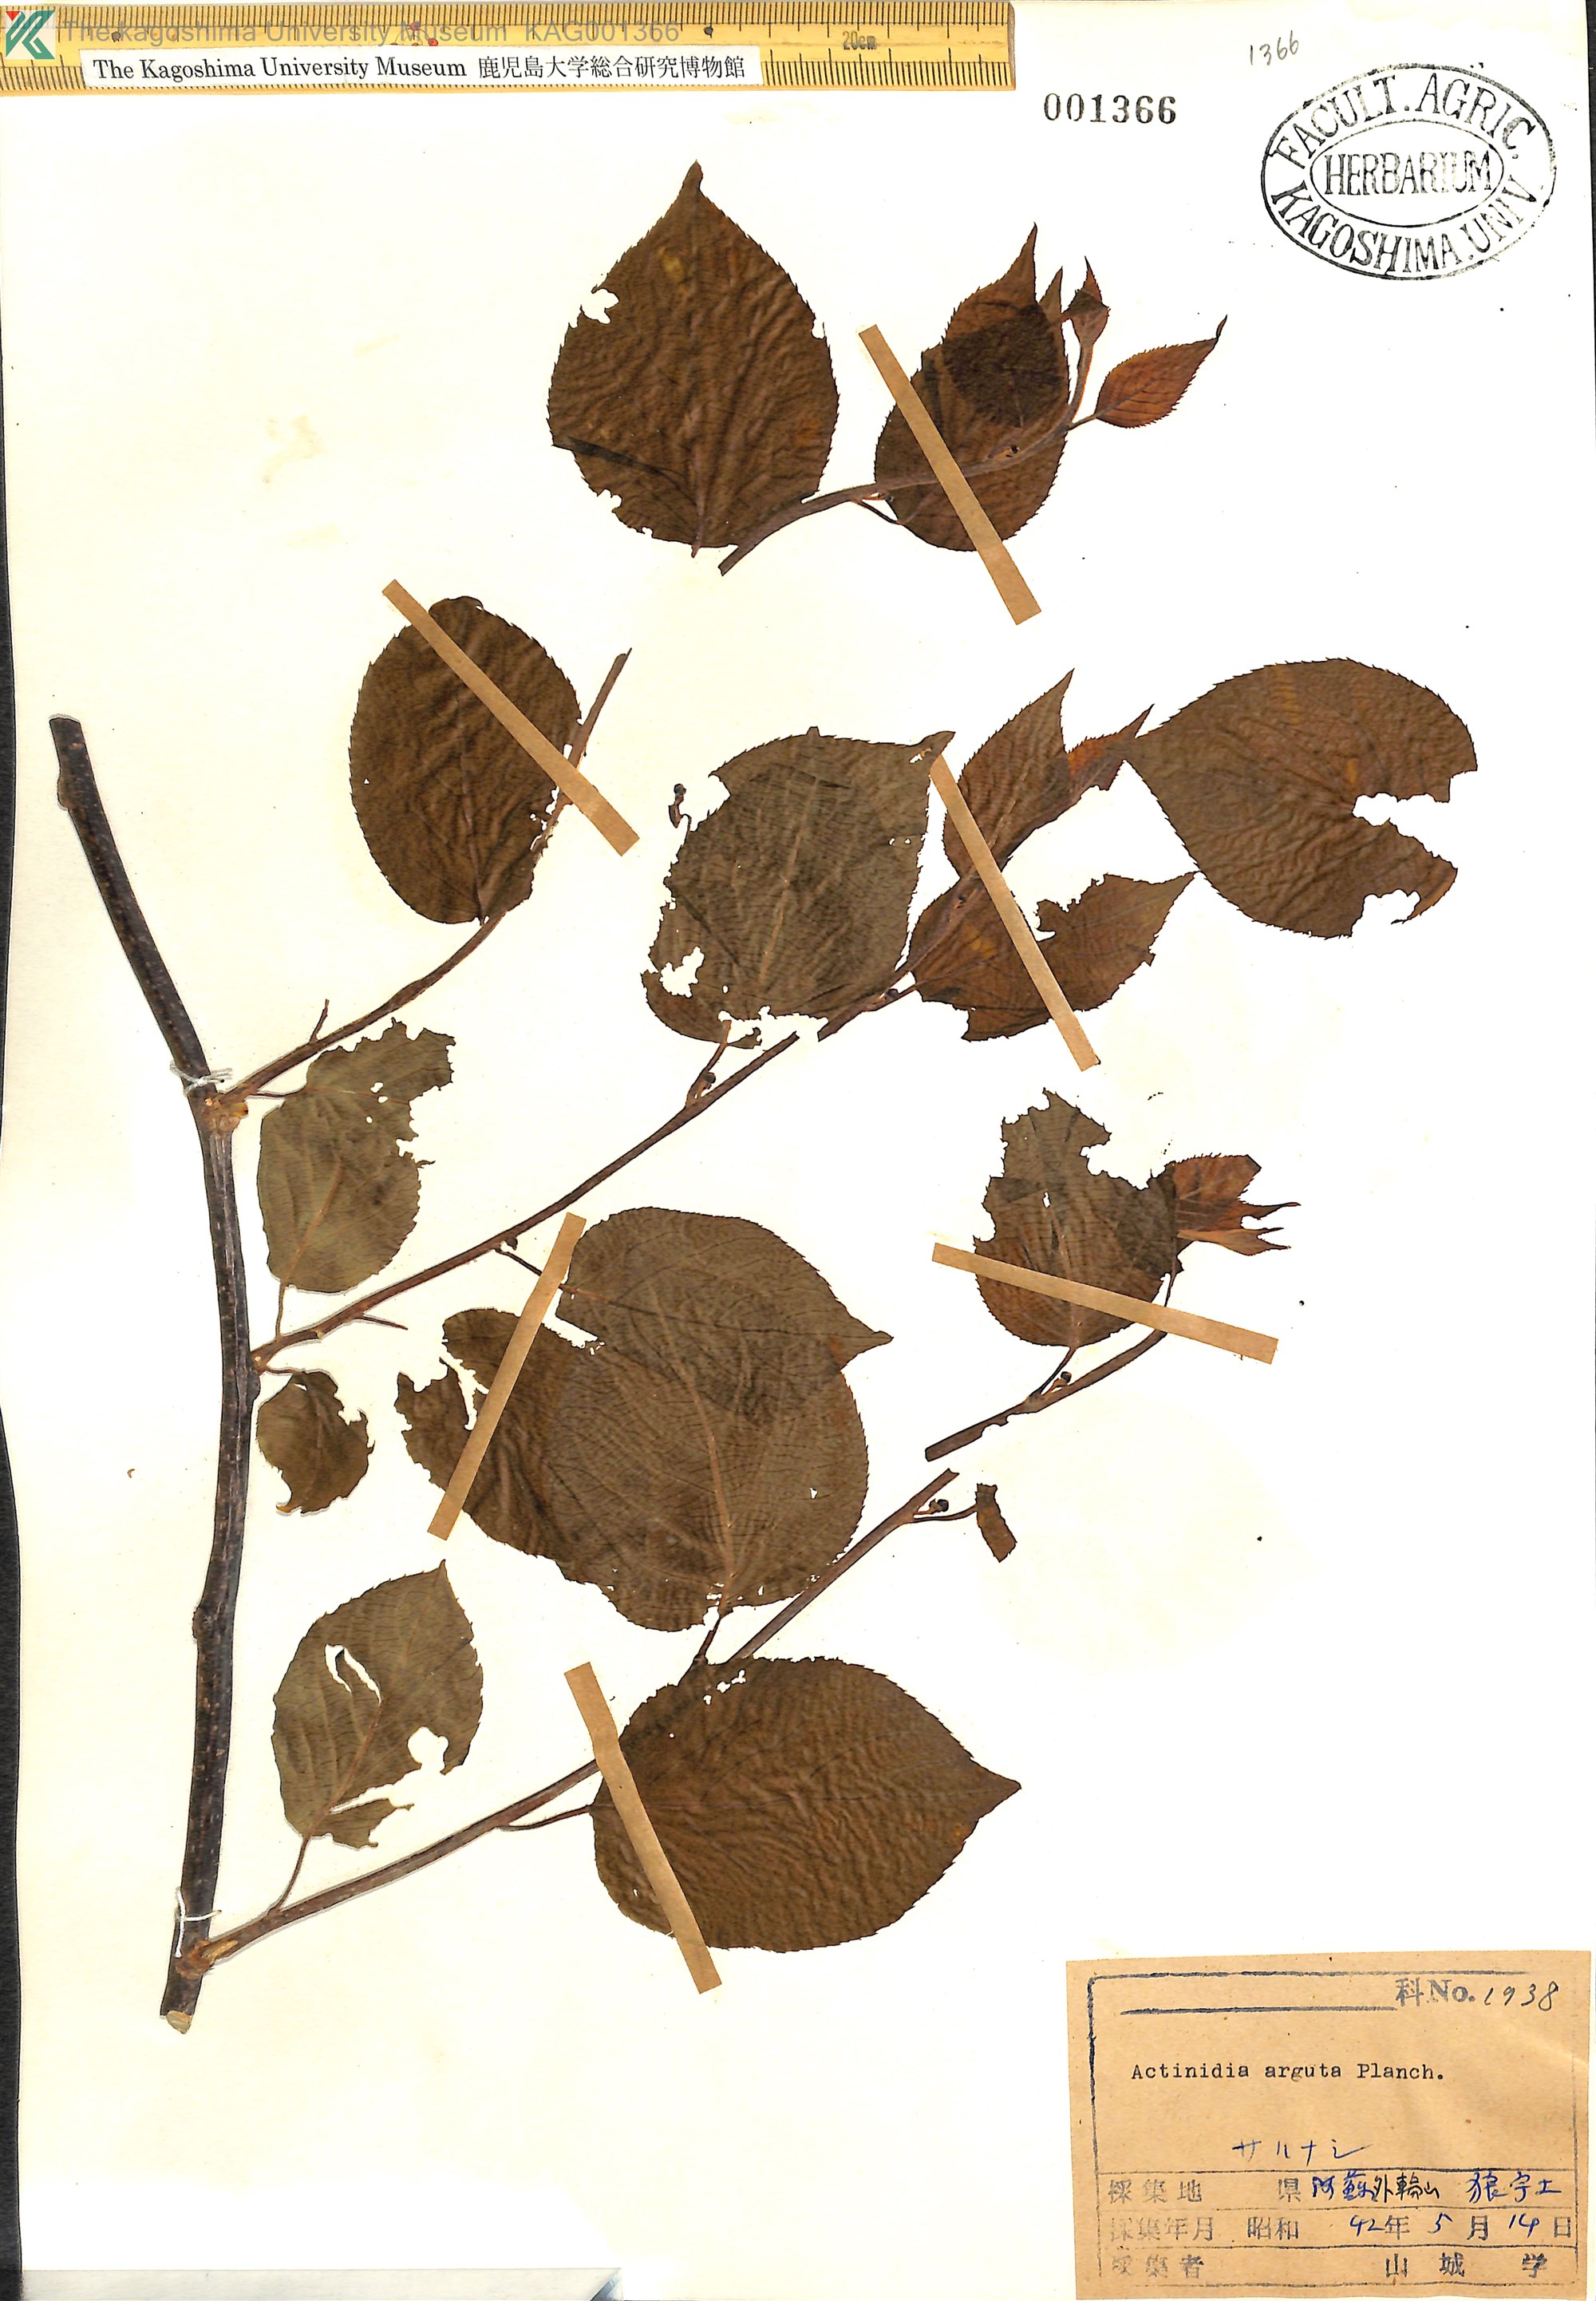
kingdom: Plantae
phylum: Tracheophyta
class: Magnoliopsida
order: Ericales
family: Actinidiaceae
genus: Actinidia
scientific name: Actinidia arguta
